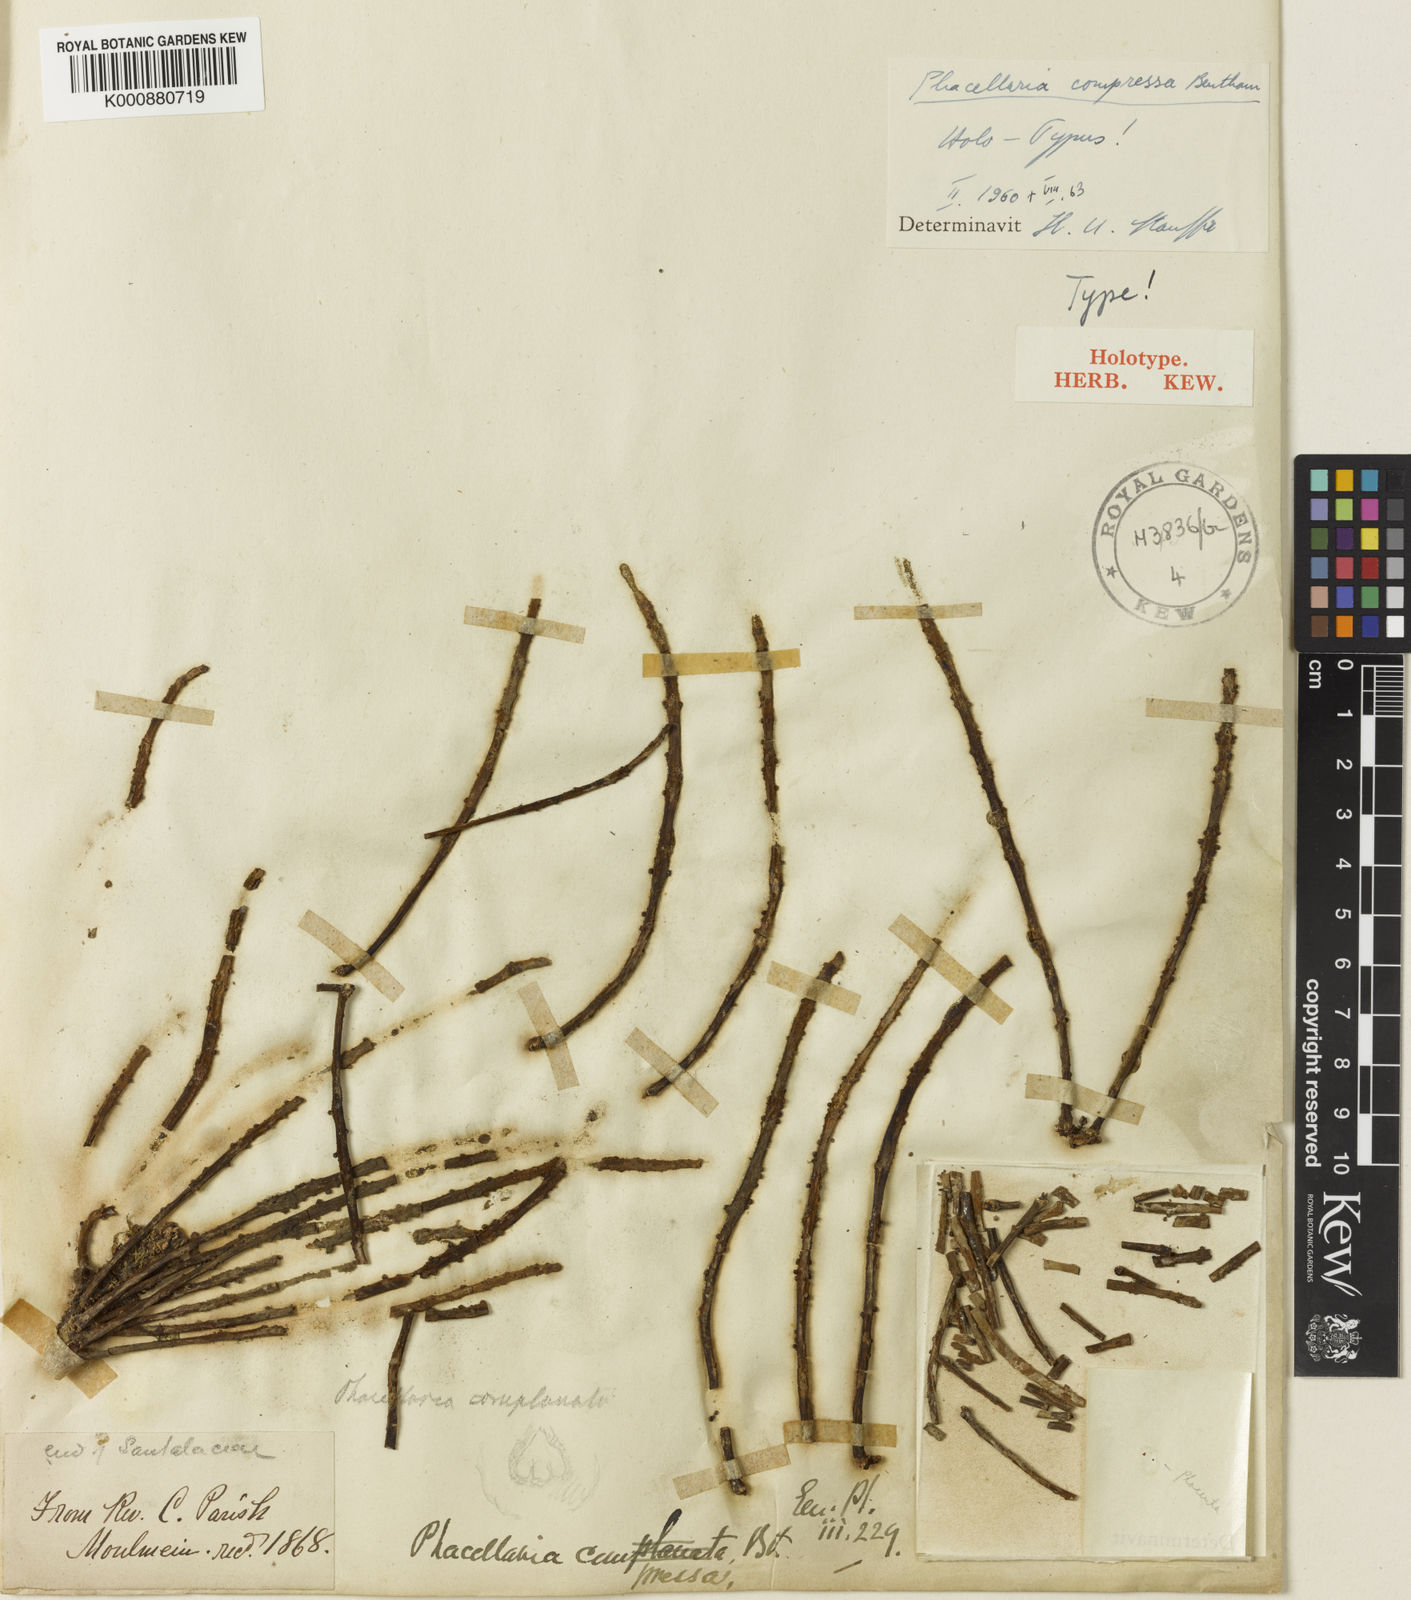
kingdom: Plantae
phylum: Tracheophyta
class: Magnoliopsida
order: Santalales
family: Amphorogynaceae
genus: Phacellaria
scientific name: Phacellaria compressa
